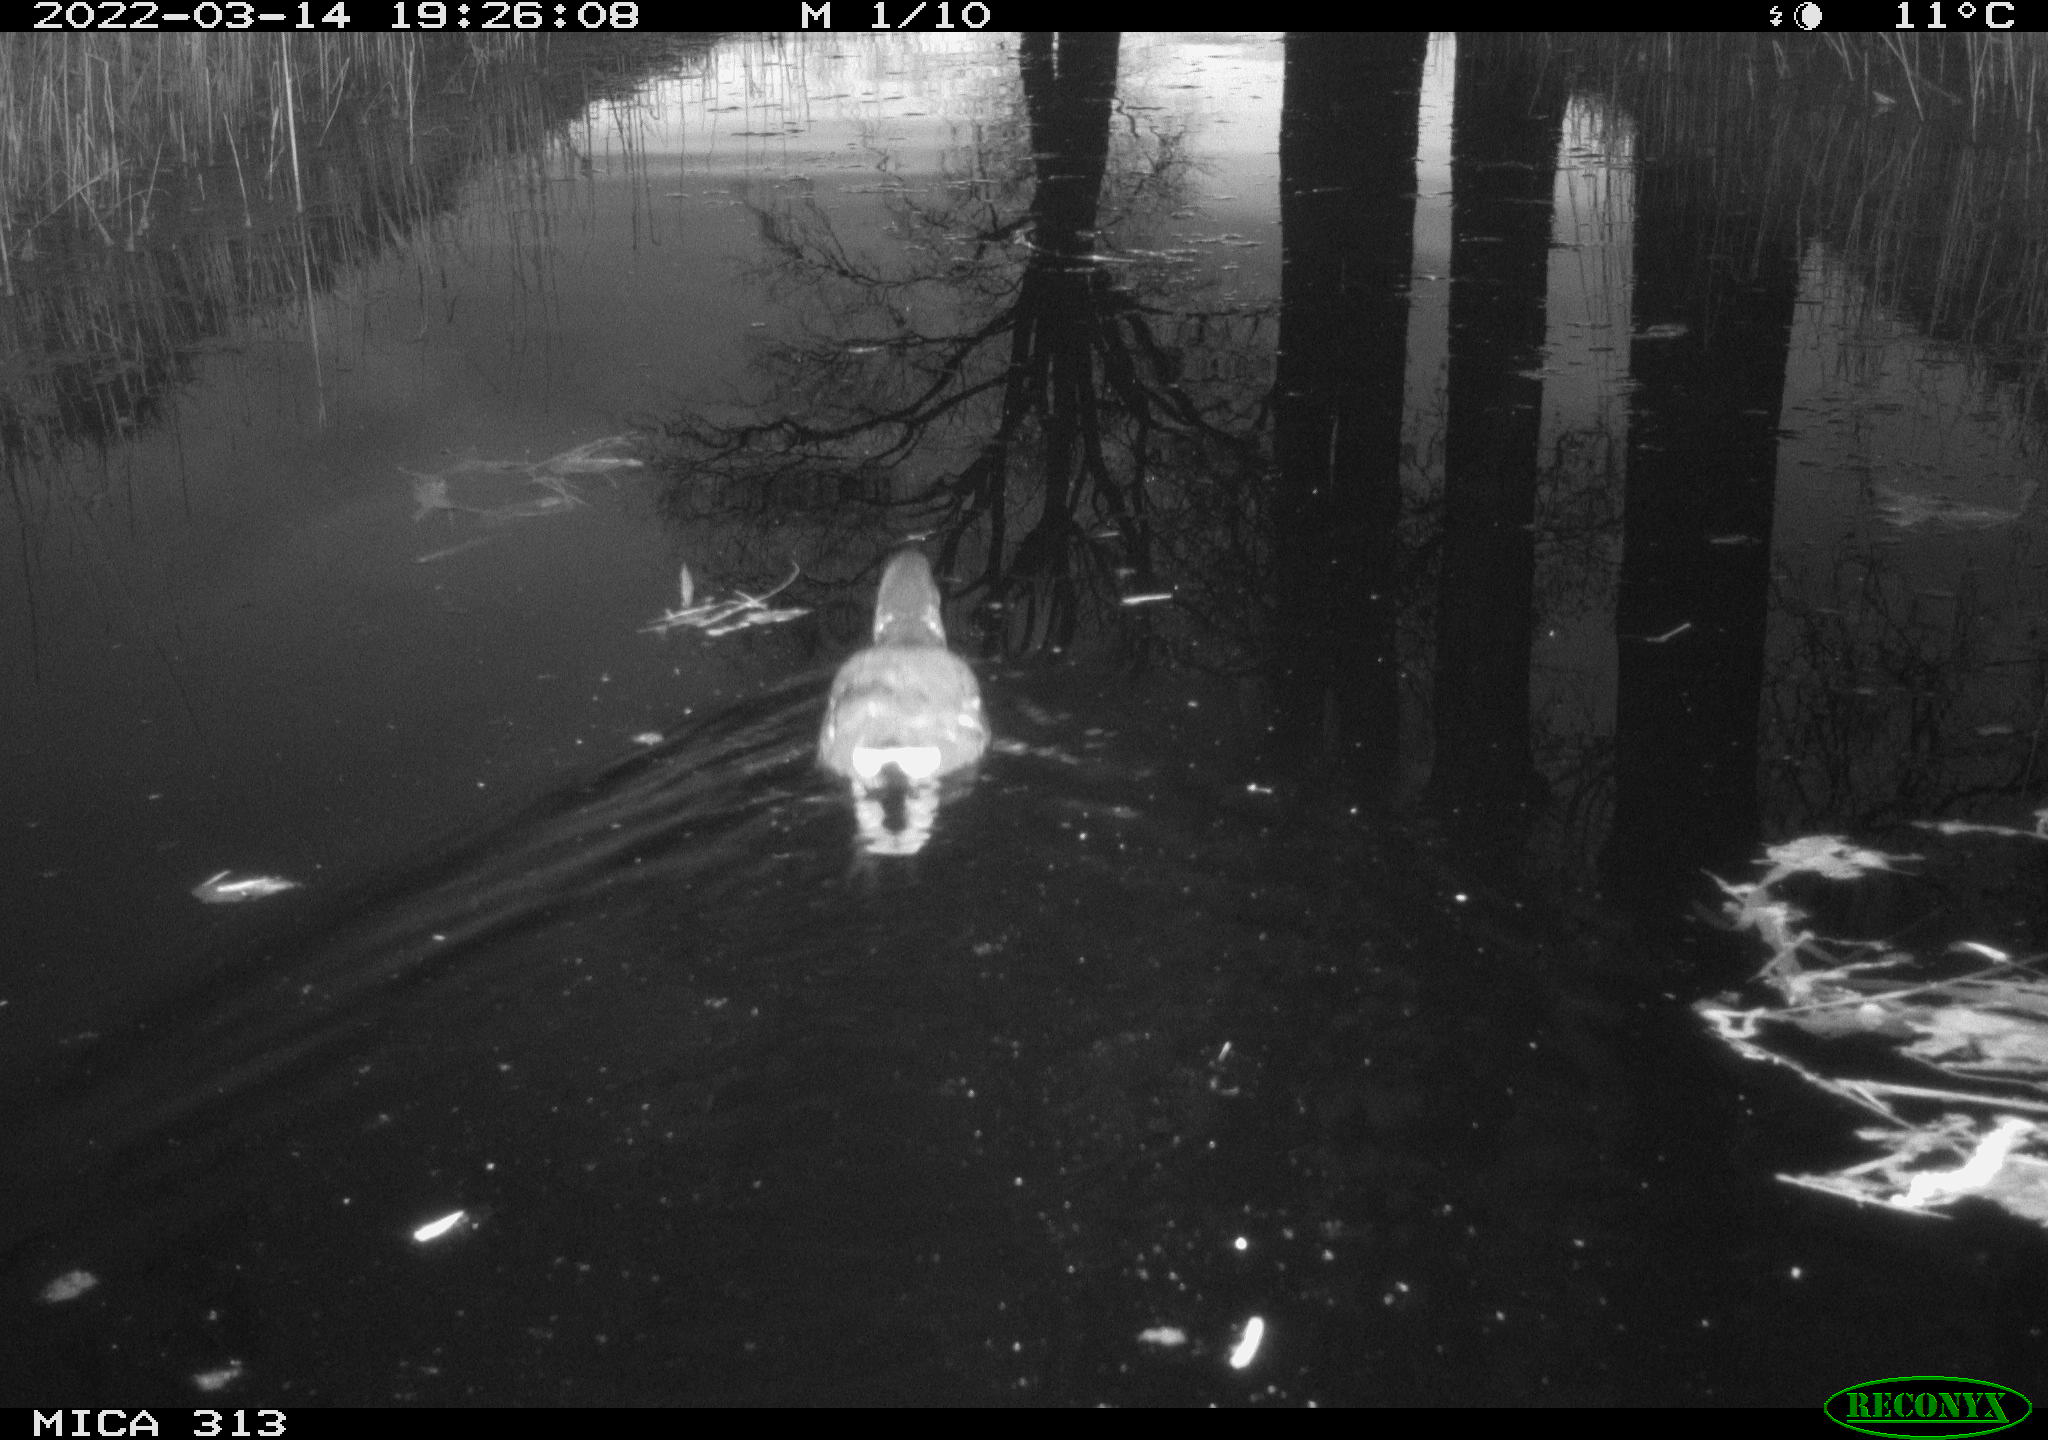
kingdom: Animalia
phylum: Chordata
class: Aves
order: Gruiformes
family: Rallidae
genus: Gallinula
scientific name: Gallinula chloropus
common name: Common moorhen
